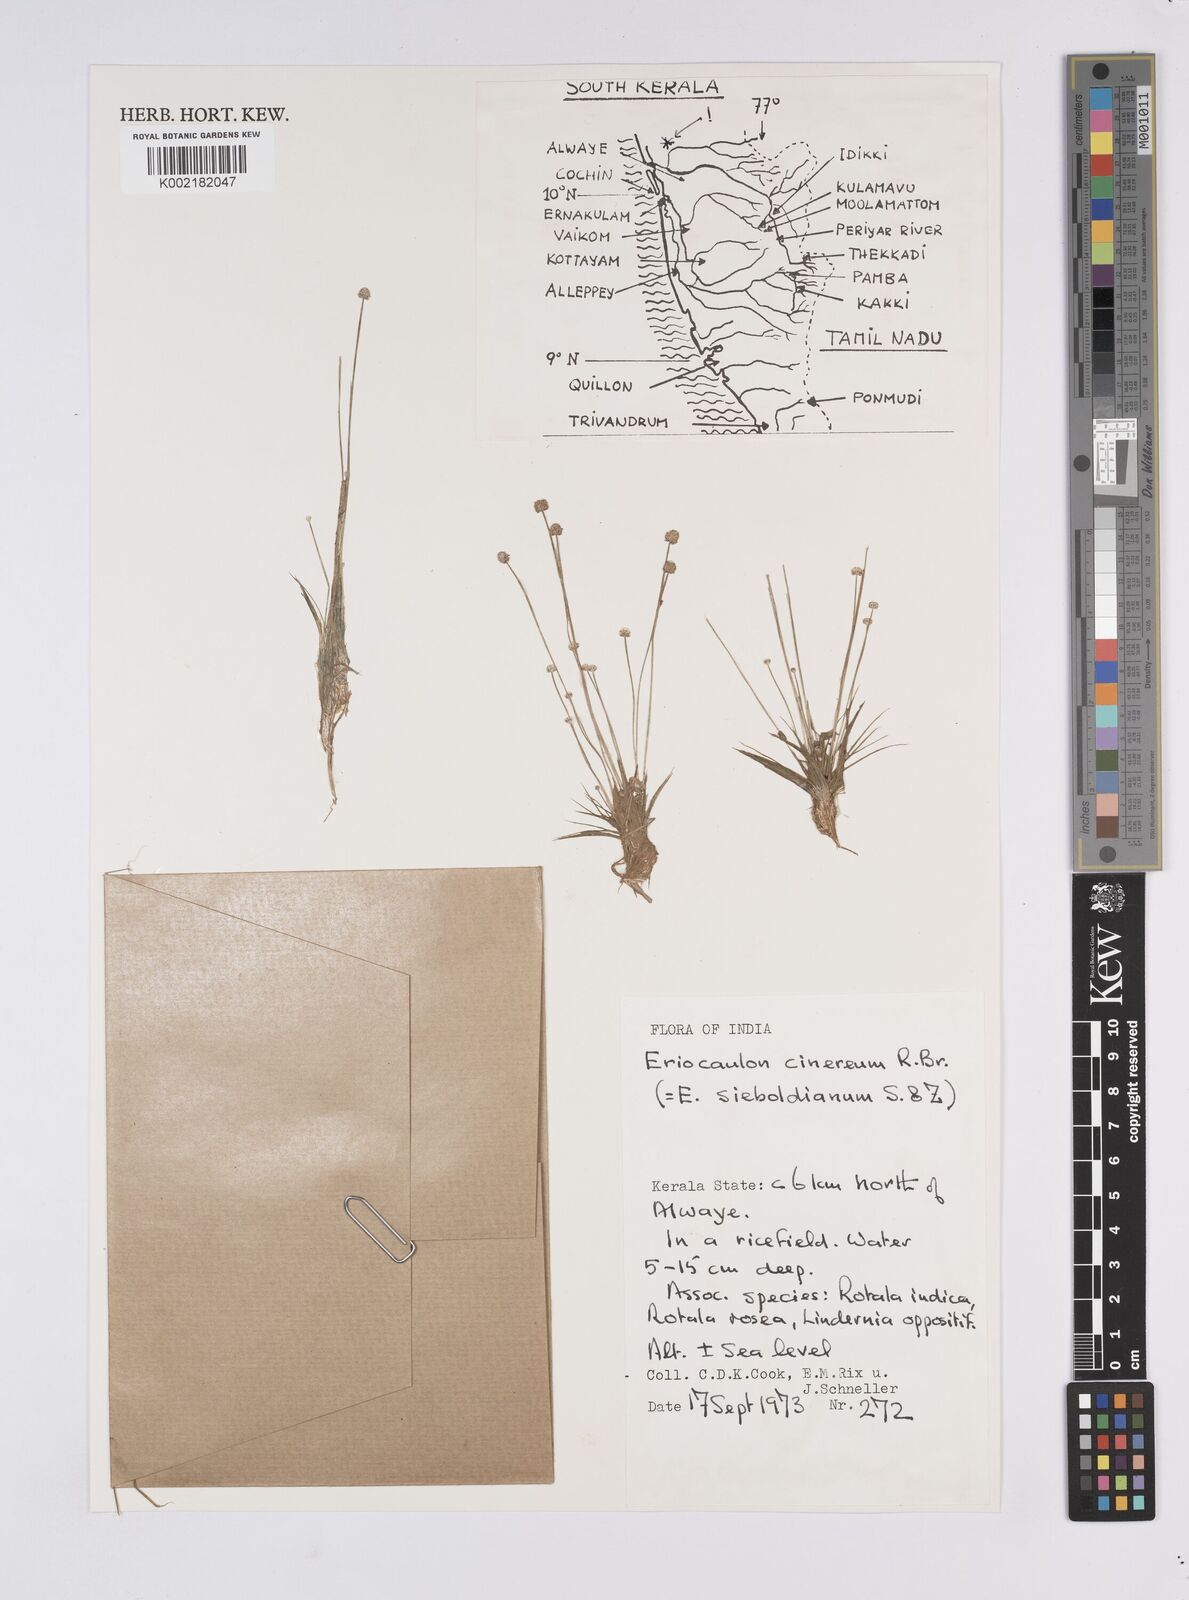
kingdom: Plantae
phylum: Tracheophyta
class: Liliopsida
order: Poales
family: Eriocaulaceae
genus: Eriocaulon
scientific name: Eriocaulon cinereum
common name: Ashy pipewort
